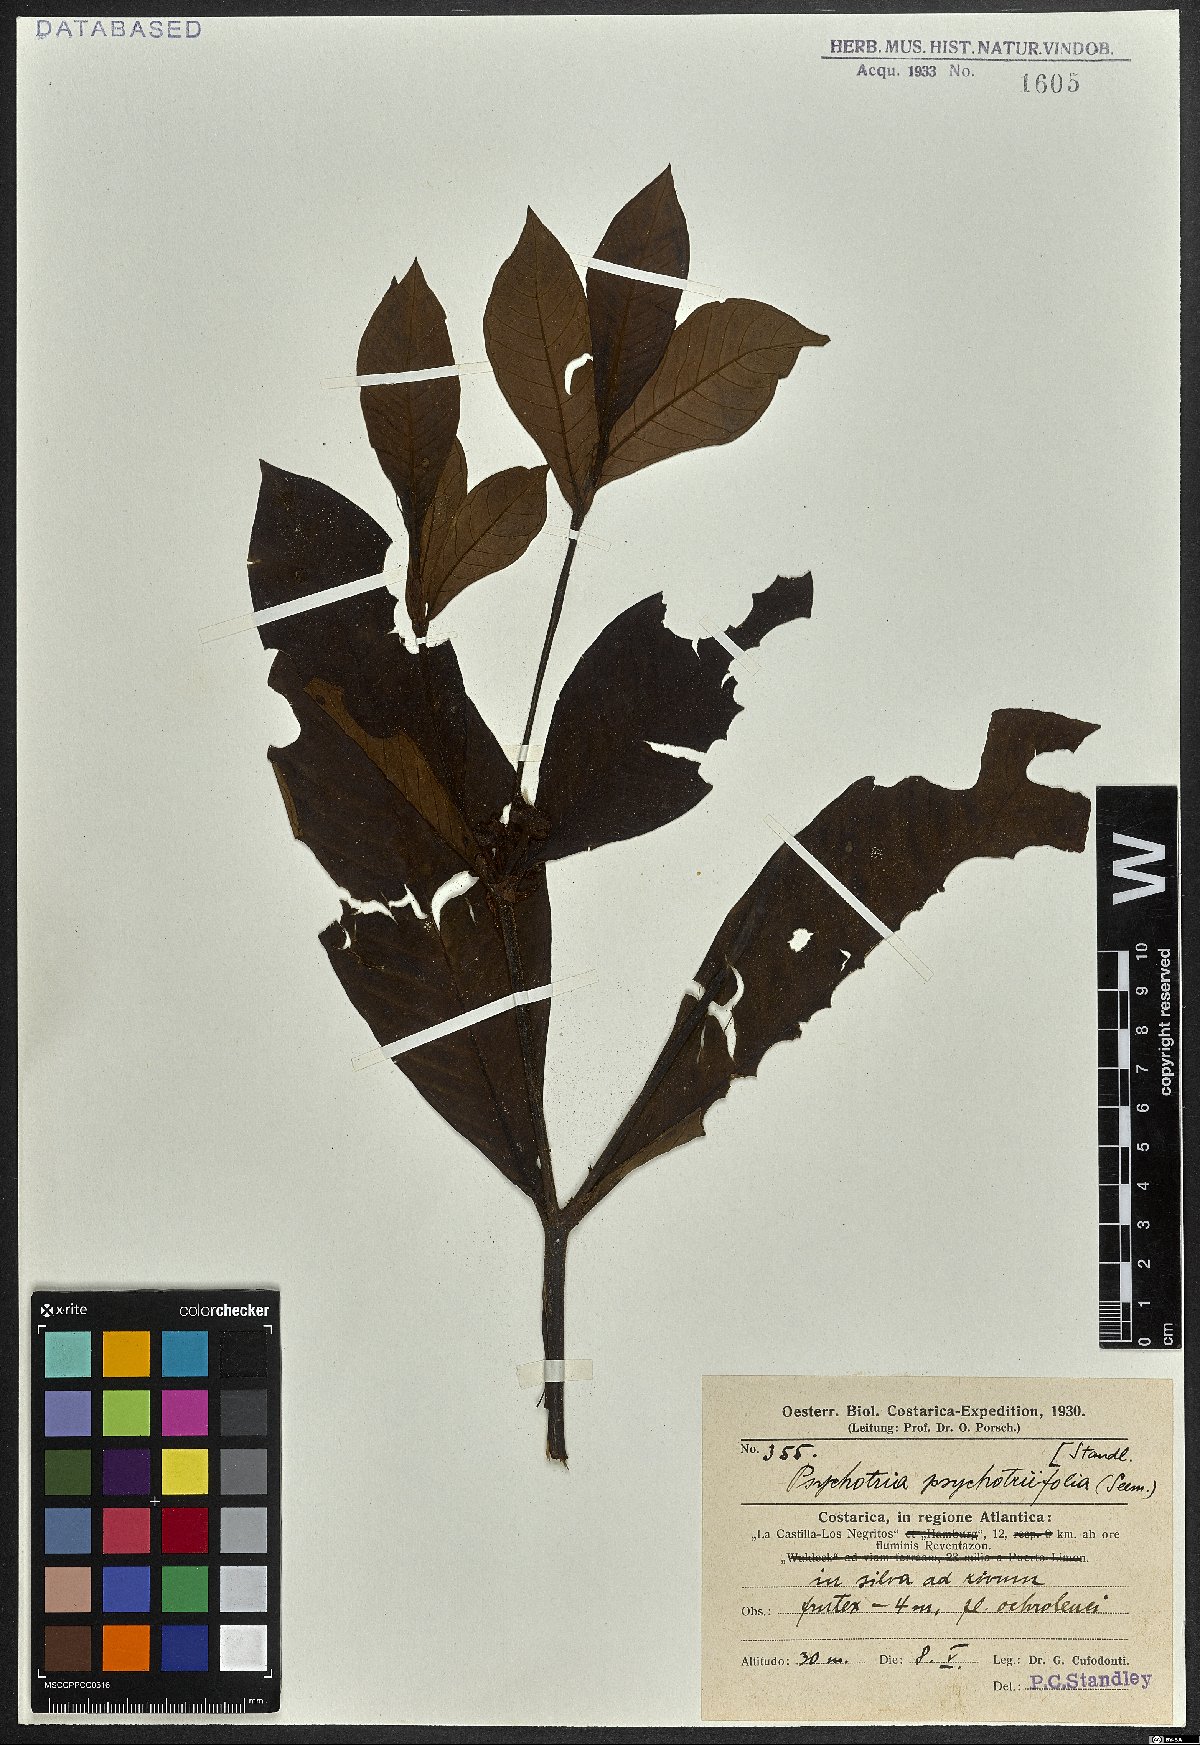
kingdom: Plantae
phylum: Tracheophyta
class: Magnoliopsida
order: Gentianales
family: Rubiaceae
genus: Psychotria
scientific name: Psychotria psychotriifolia
